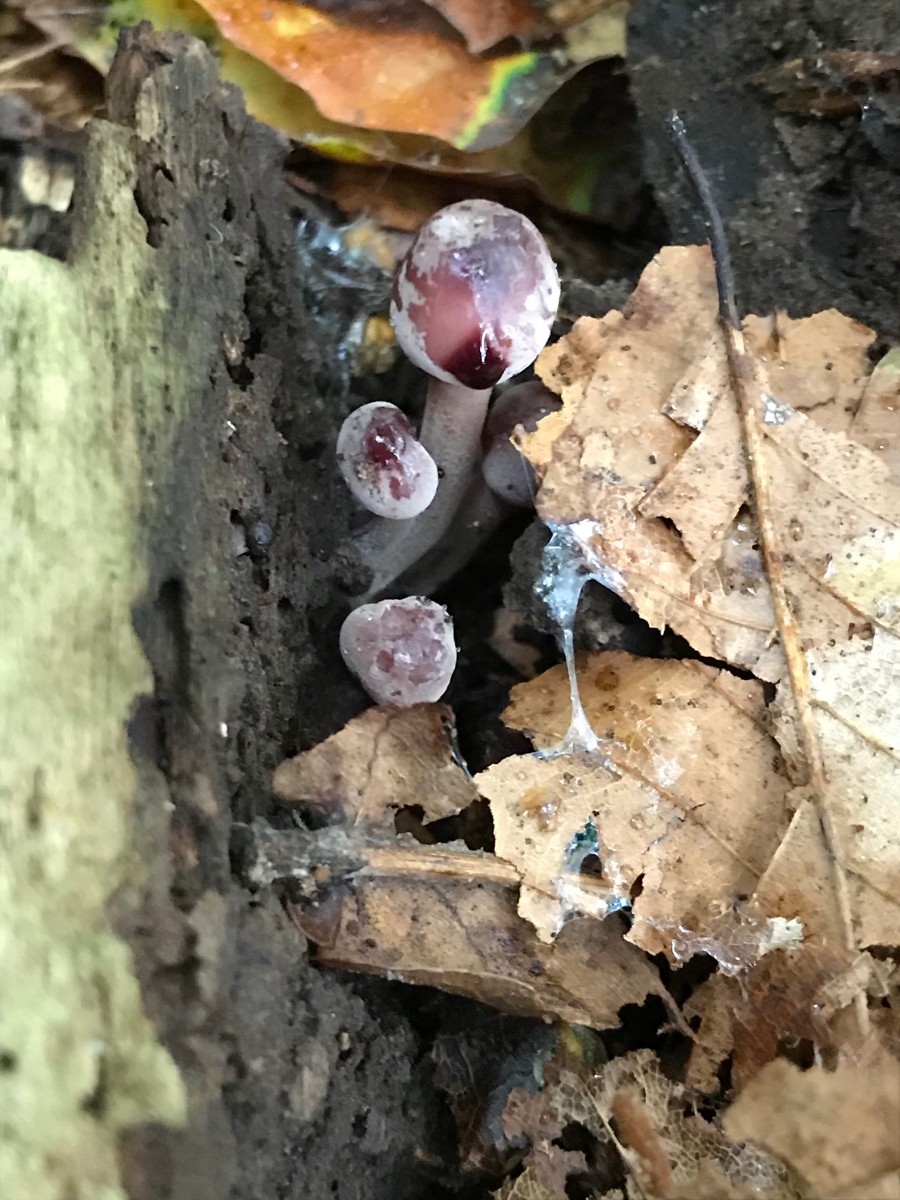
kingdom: Fungi
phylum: Basidiomycota
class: Agaricomycetes
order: Agaricales
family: Mycenaceae
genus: Mycena
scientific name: Mycena haematopus
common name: blødende huesvamp
